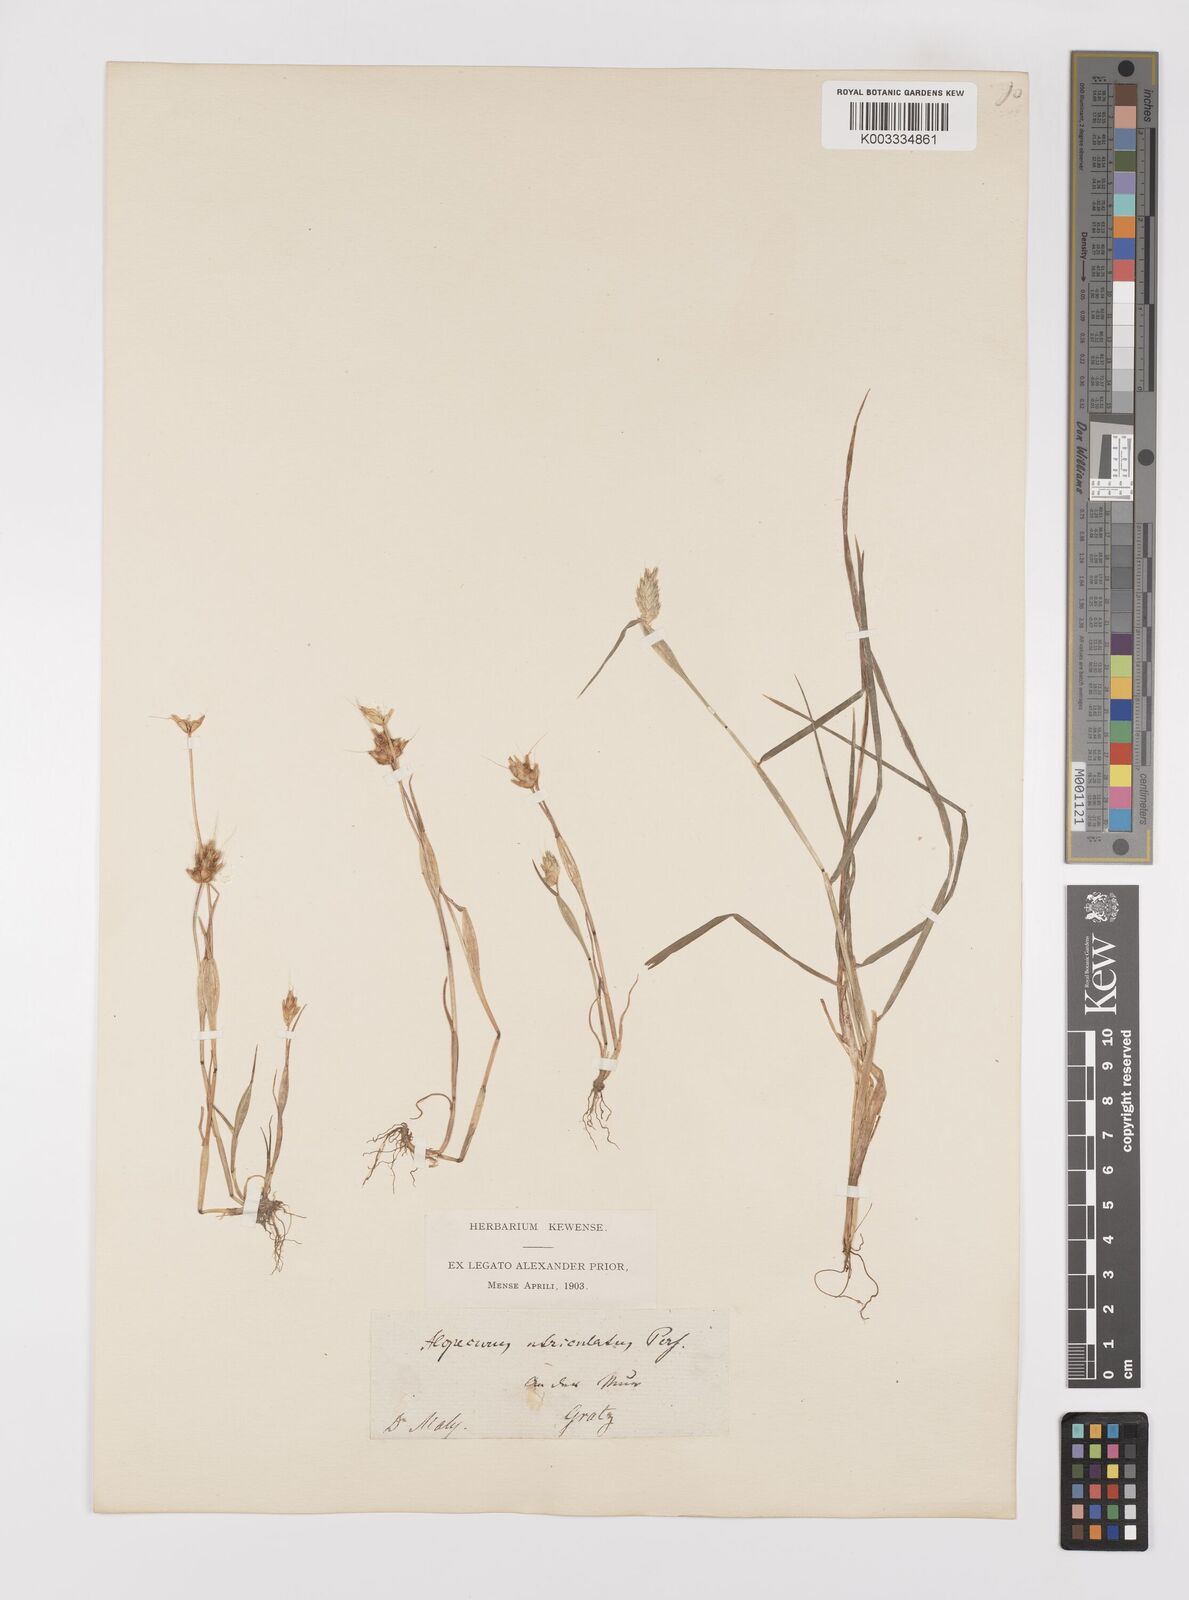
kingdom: Plantae
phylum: Tracheophyta
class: Liliopsida
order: Poales
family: Poaceae
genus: Alopecurus
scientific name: Alopecurus rendlei
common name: Rendle's meadow foxtail
